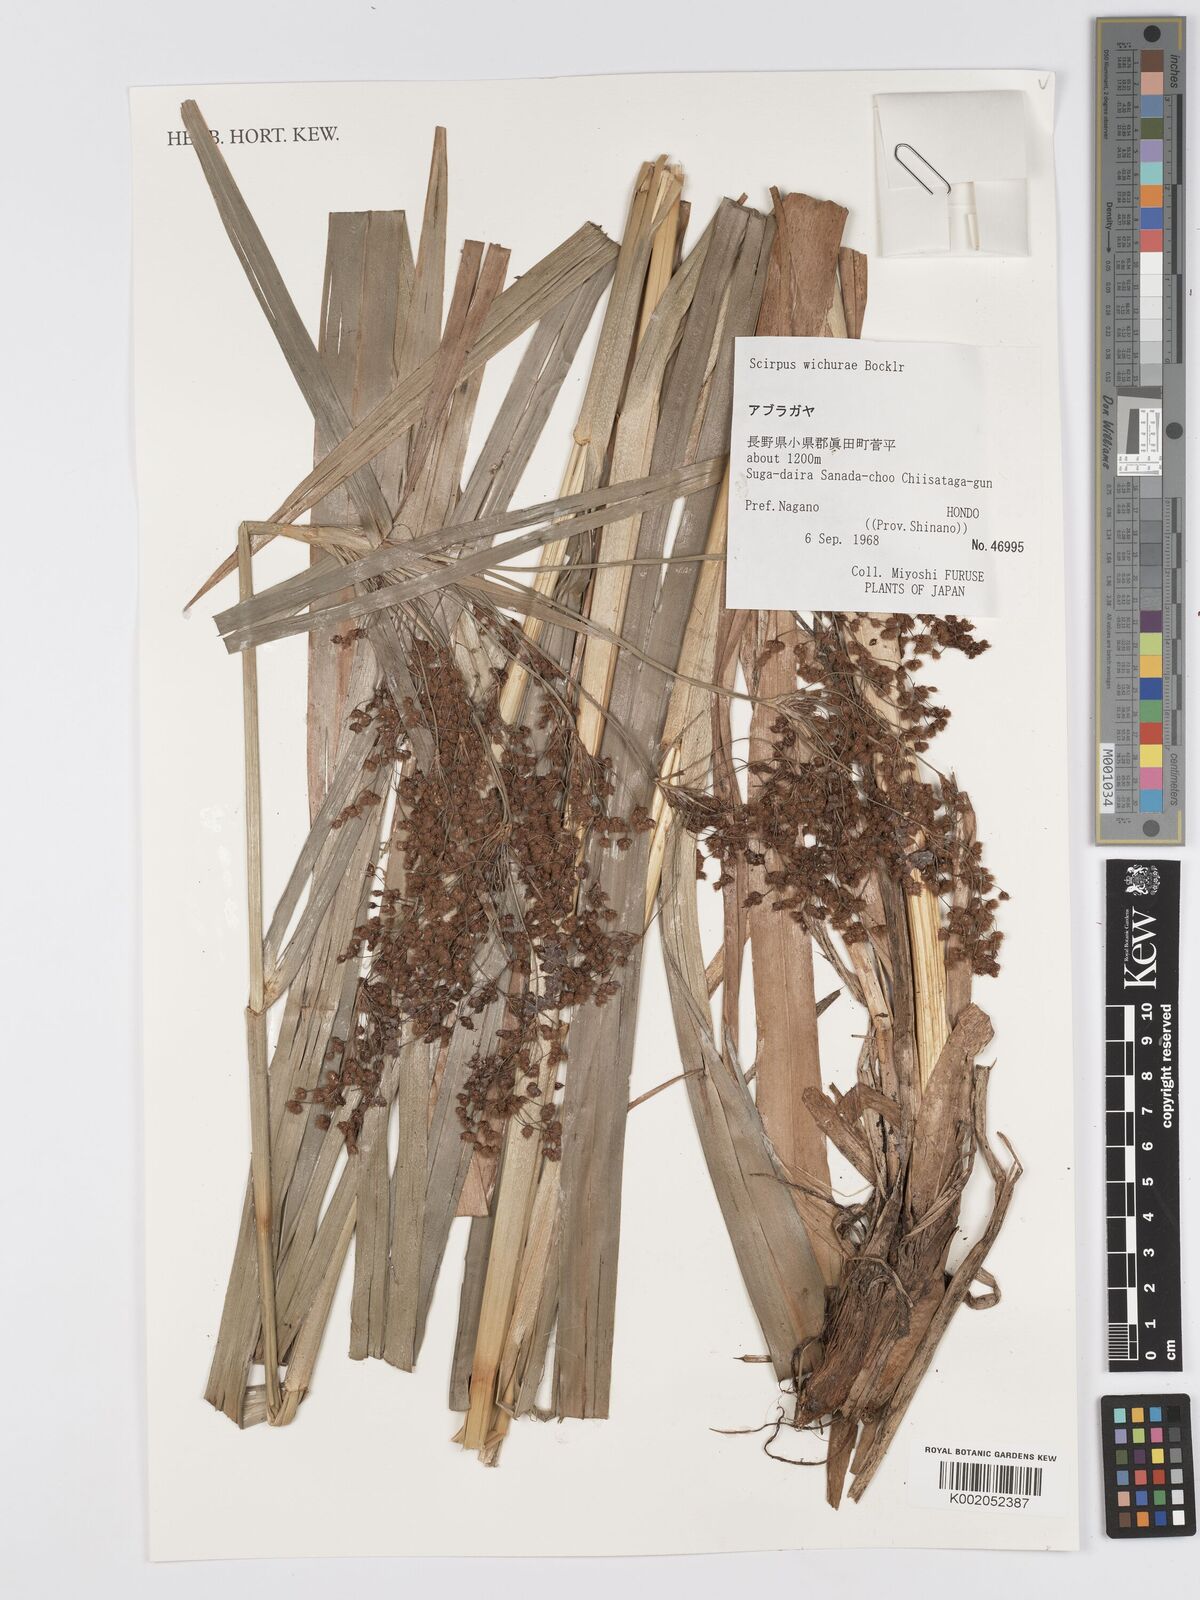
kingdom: Plantae
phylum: Tracheophyta
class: Liliopsida
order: Poales
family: Cyperaceae
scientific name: Cyperaceae
